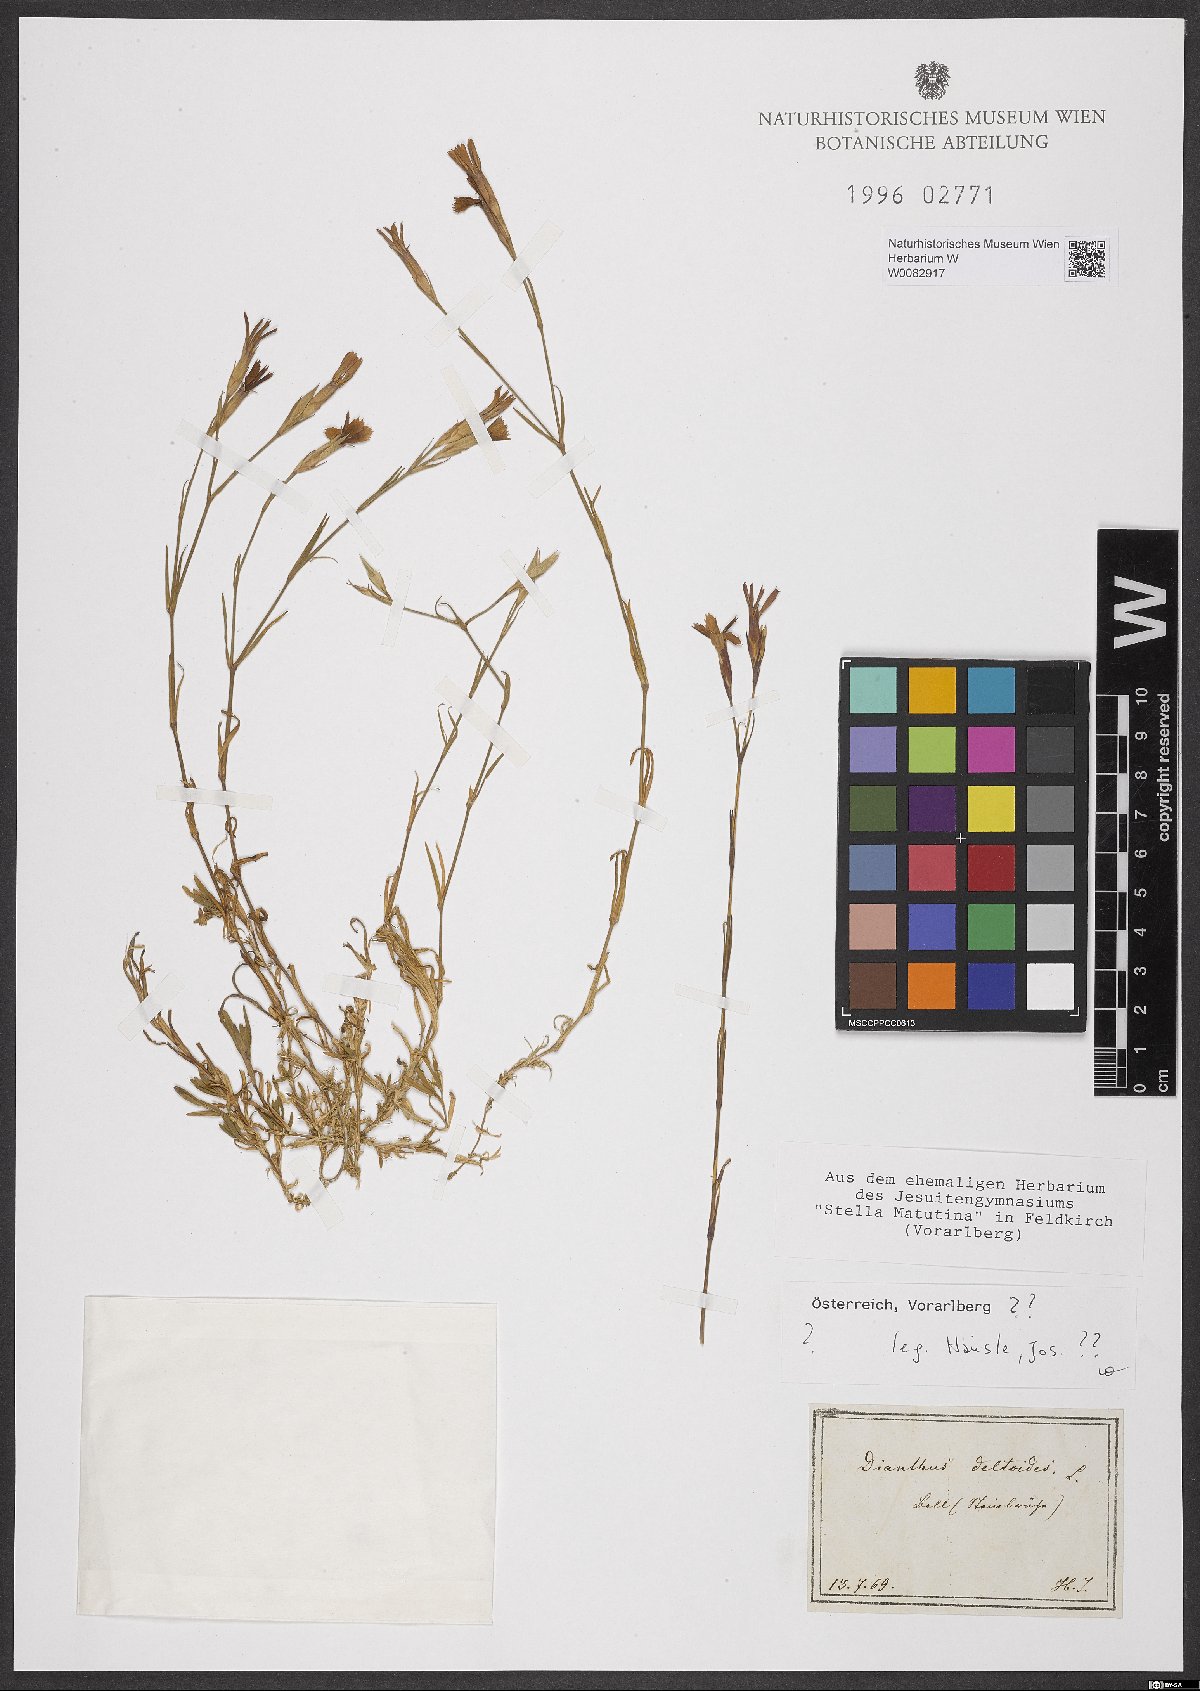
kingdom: Plantae
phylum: Tracheophyta
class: Magnoliopsida
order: Caryophyllales
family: Caryophyllaceae
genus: Dianthus
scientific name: Dianthus deltoides
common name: Maiden pink
